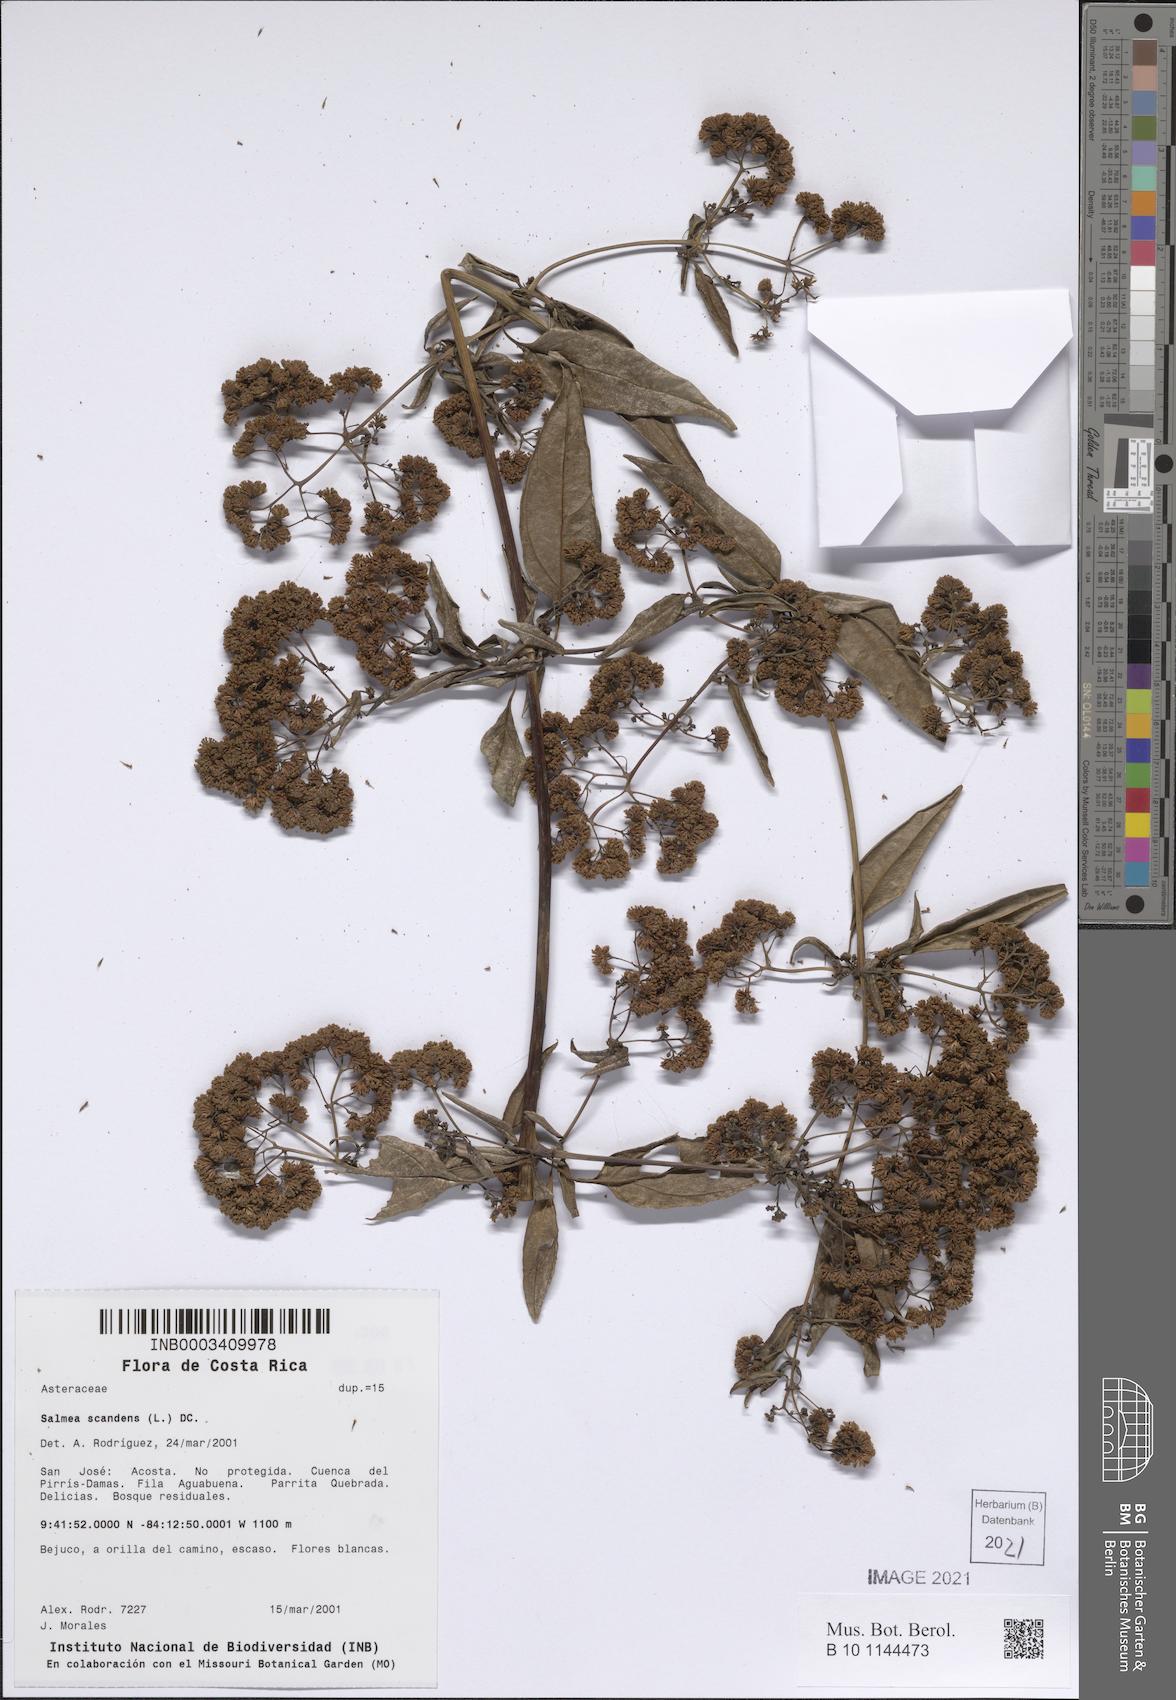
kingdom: Plantae
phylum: Tracheophyta
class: Magnoliopsida
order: Asterales
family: Asteraceae
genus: Salmea
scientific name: Salmea scandens
